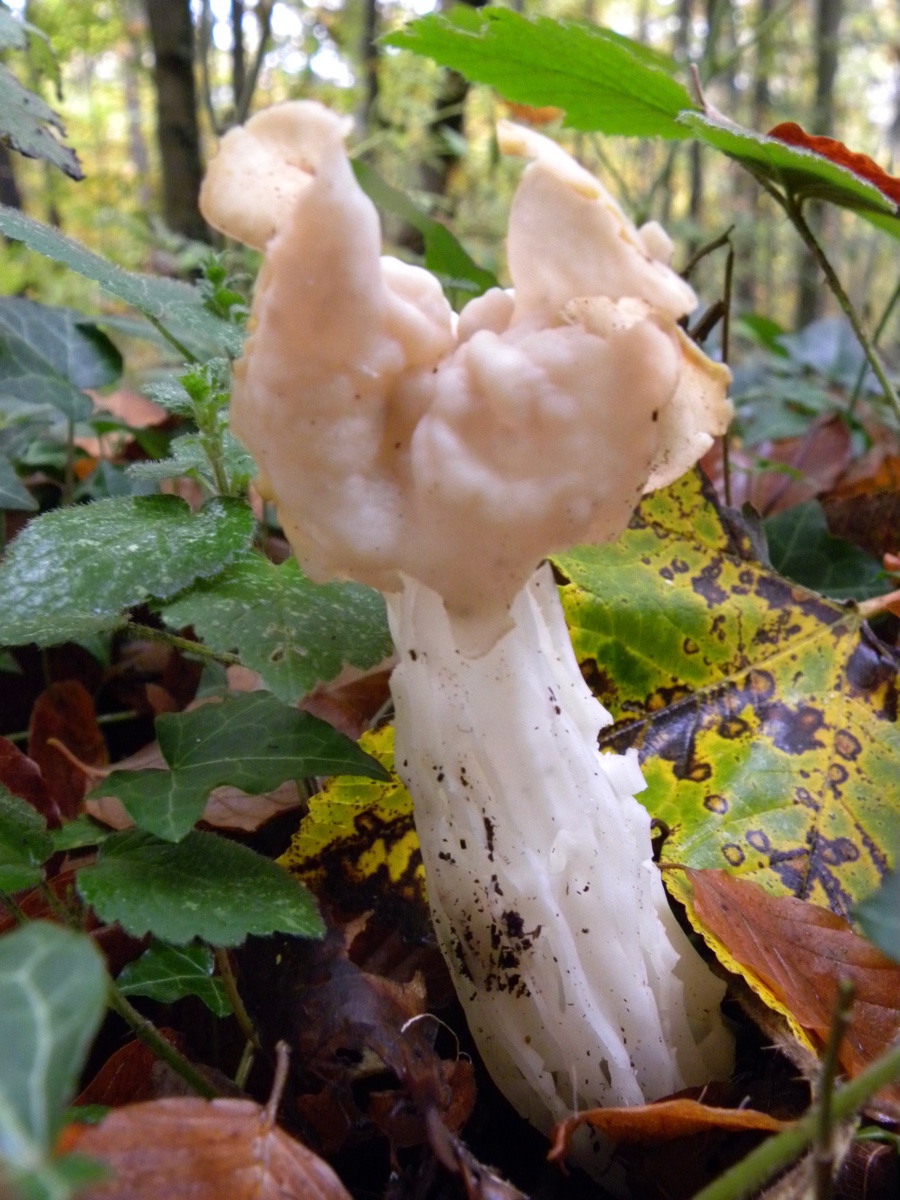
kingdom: Fungi
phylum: Ascomycota
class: Pezizomycetes
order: Pezizales
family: Helvellaceae
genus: Helvella
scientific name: Helvella crispa
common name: kruset foldhat
